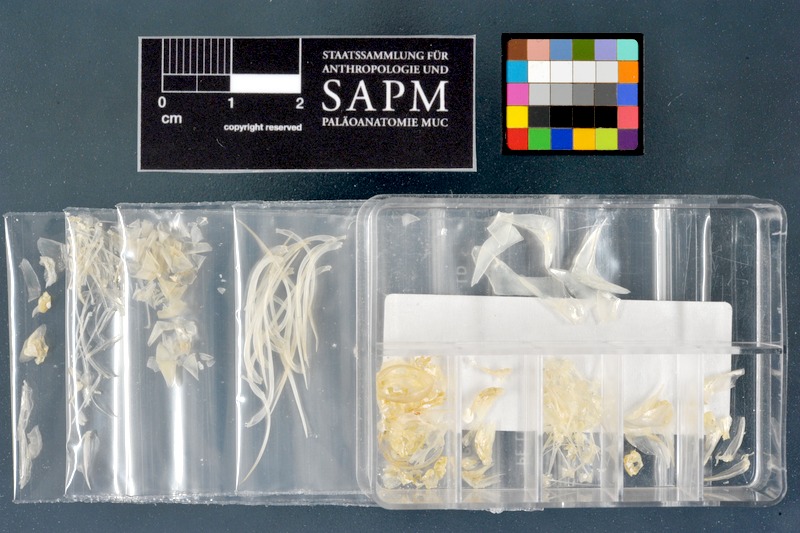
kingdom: Animalia
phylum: Chordata
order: Characiformes
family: Alestidae
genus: Phenacogrammus
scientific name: Phenacogrammus interruptus
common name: Congo tetra
